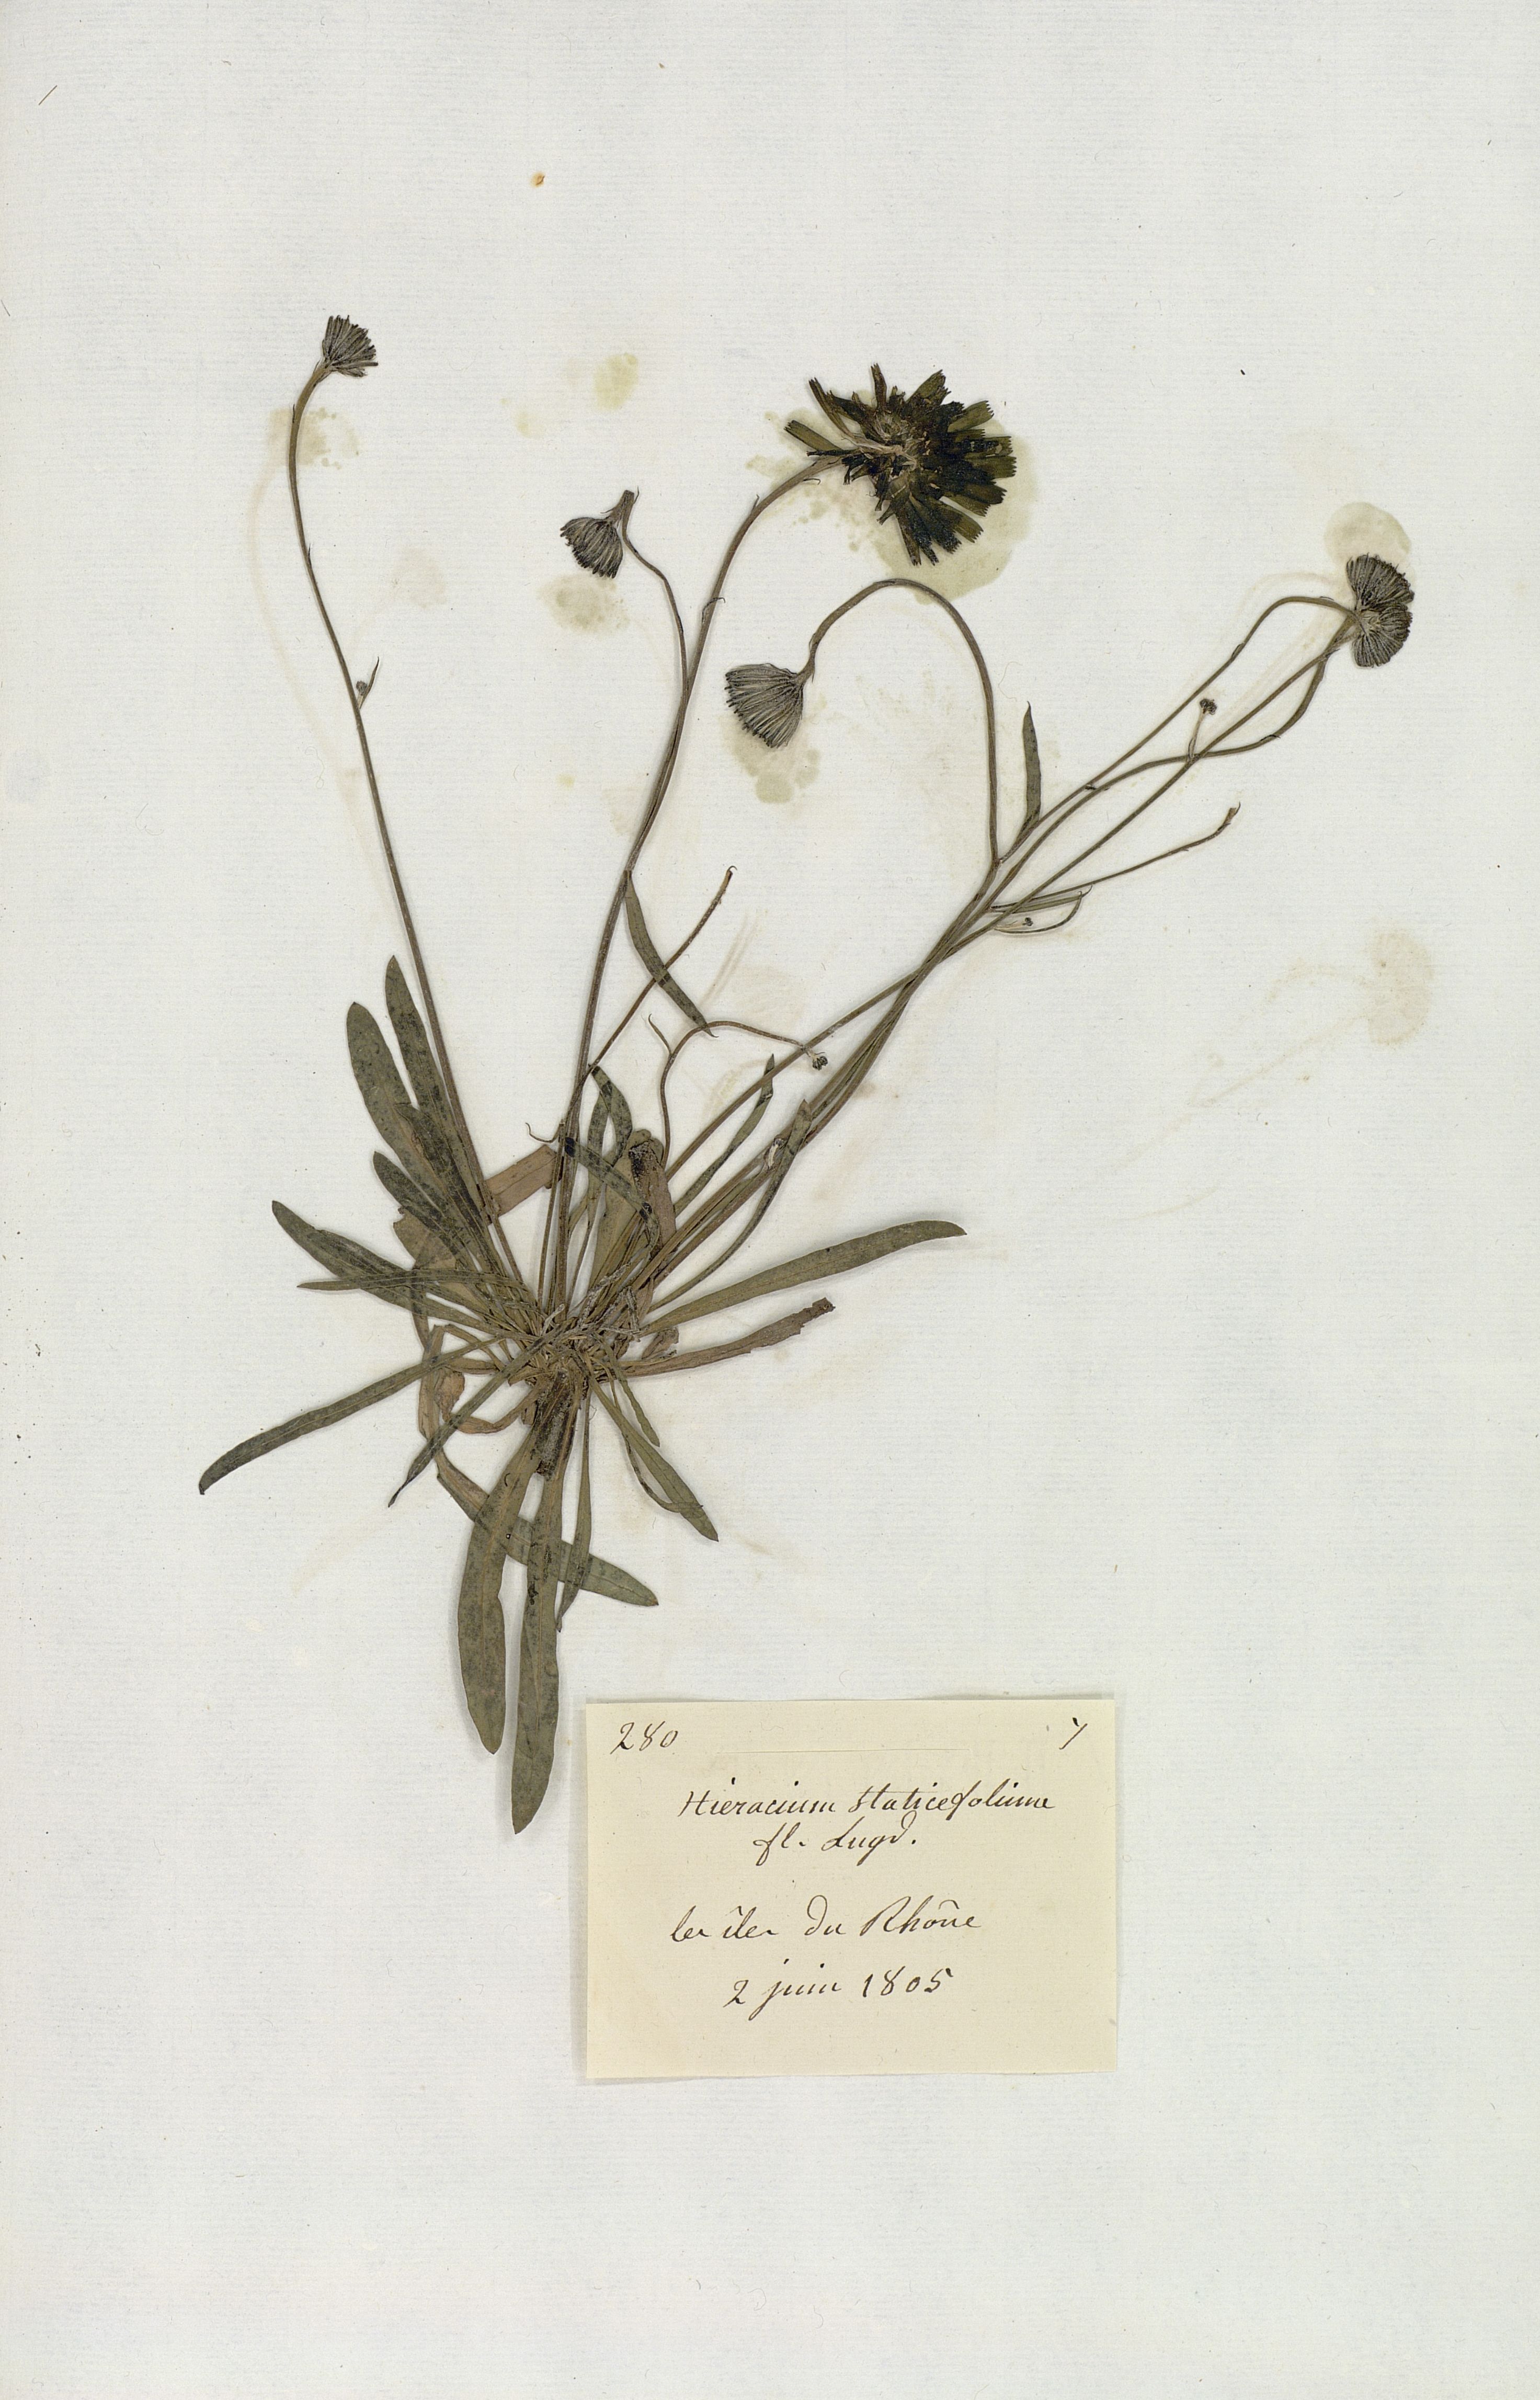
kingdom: Plantae
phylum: Tracheophyta
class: Magnoliopsida
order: Asterales
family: Asteraceae
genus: Hieracium
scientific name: Hieracium staticifolium
